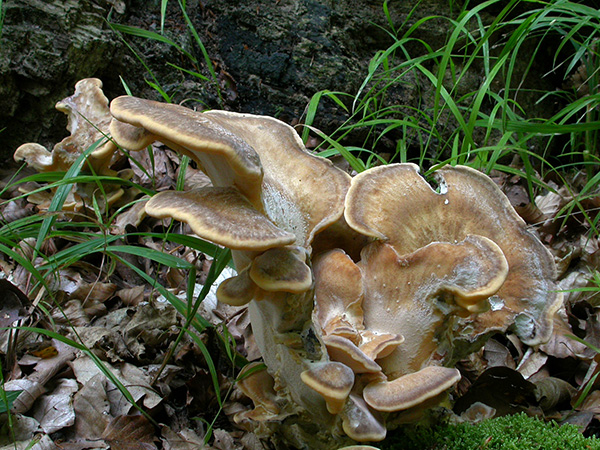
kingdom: Fungi
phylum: Basidiomycota
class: Agaricomycetes
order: Polyporales
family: Meripilaceae
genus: Meripilus
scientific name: Meripilus giganteus
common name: kæmpeporesvamp
